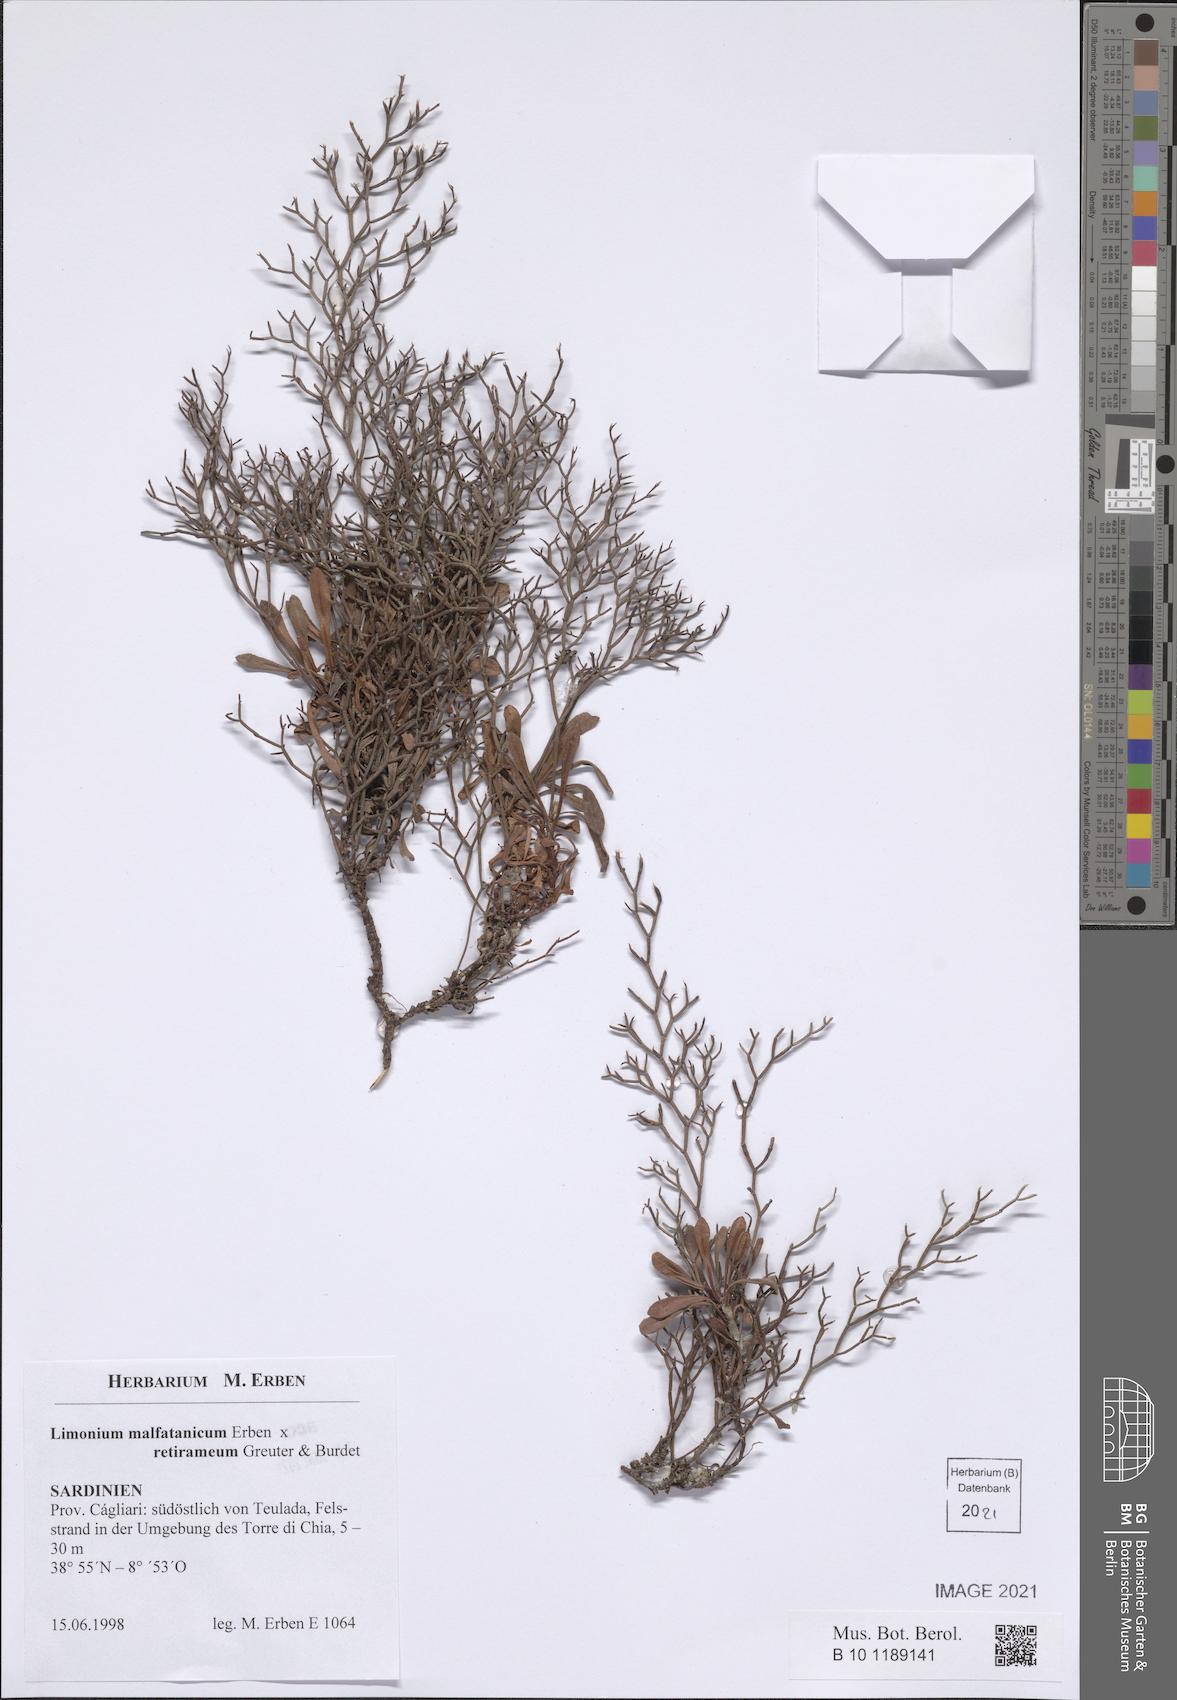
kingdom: Plantae
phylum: Tracheophyta
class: Magnoliopsida
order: Caryophyllales
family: Plumbaginaceae
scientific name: Plumbaginaceae
